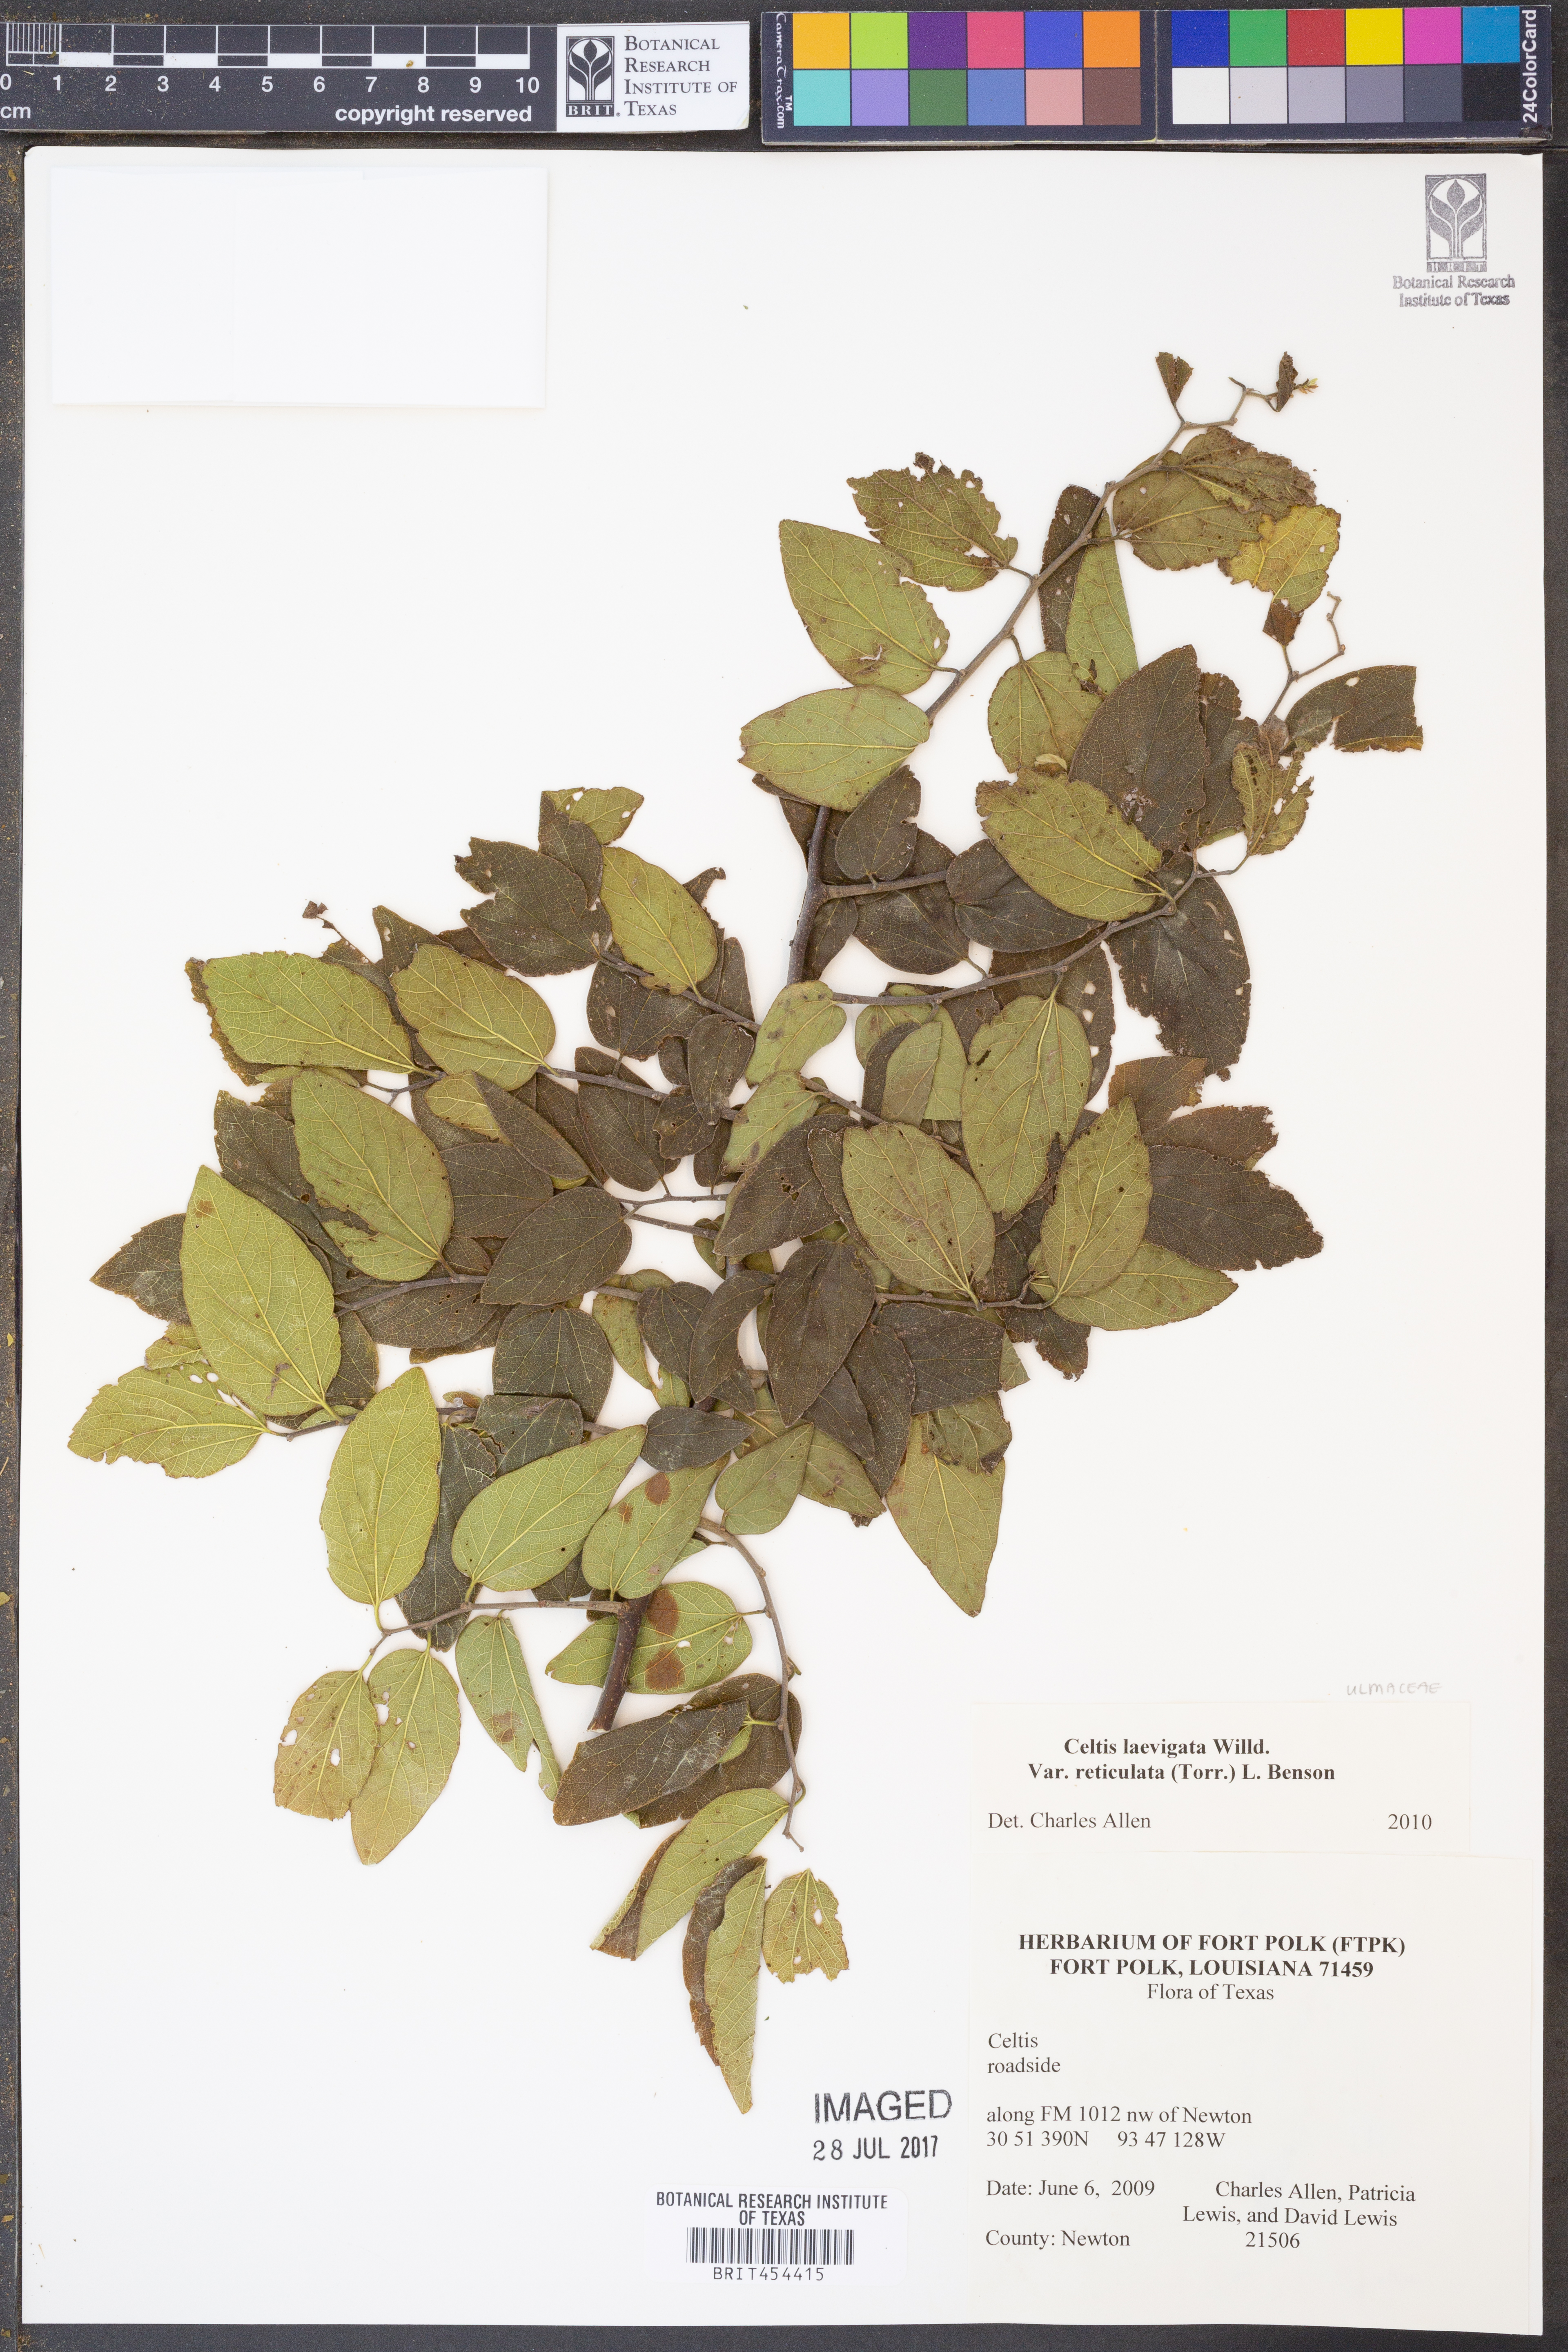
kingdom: Plantae
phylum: Tracheophyta
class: Magnoliopsida
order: Rosales
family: Cannabaceae
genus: Celtis
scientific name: Celtis reticulata
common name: Netleaf hackberry
